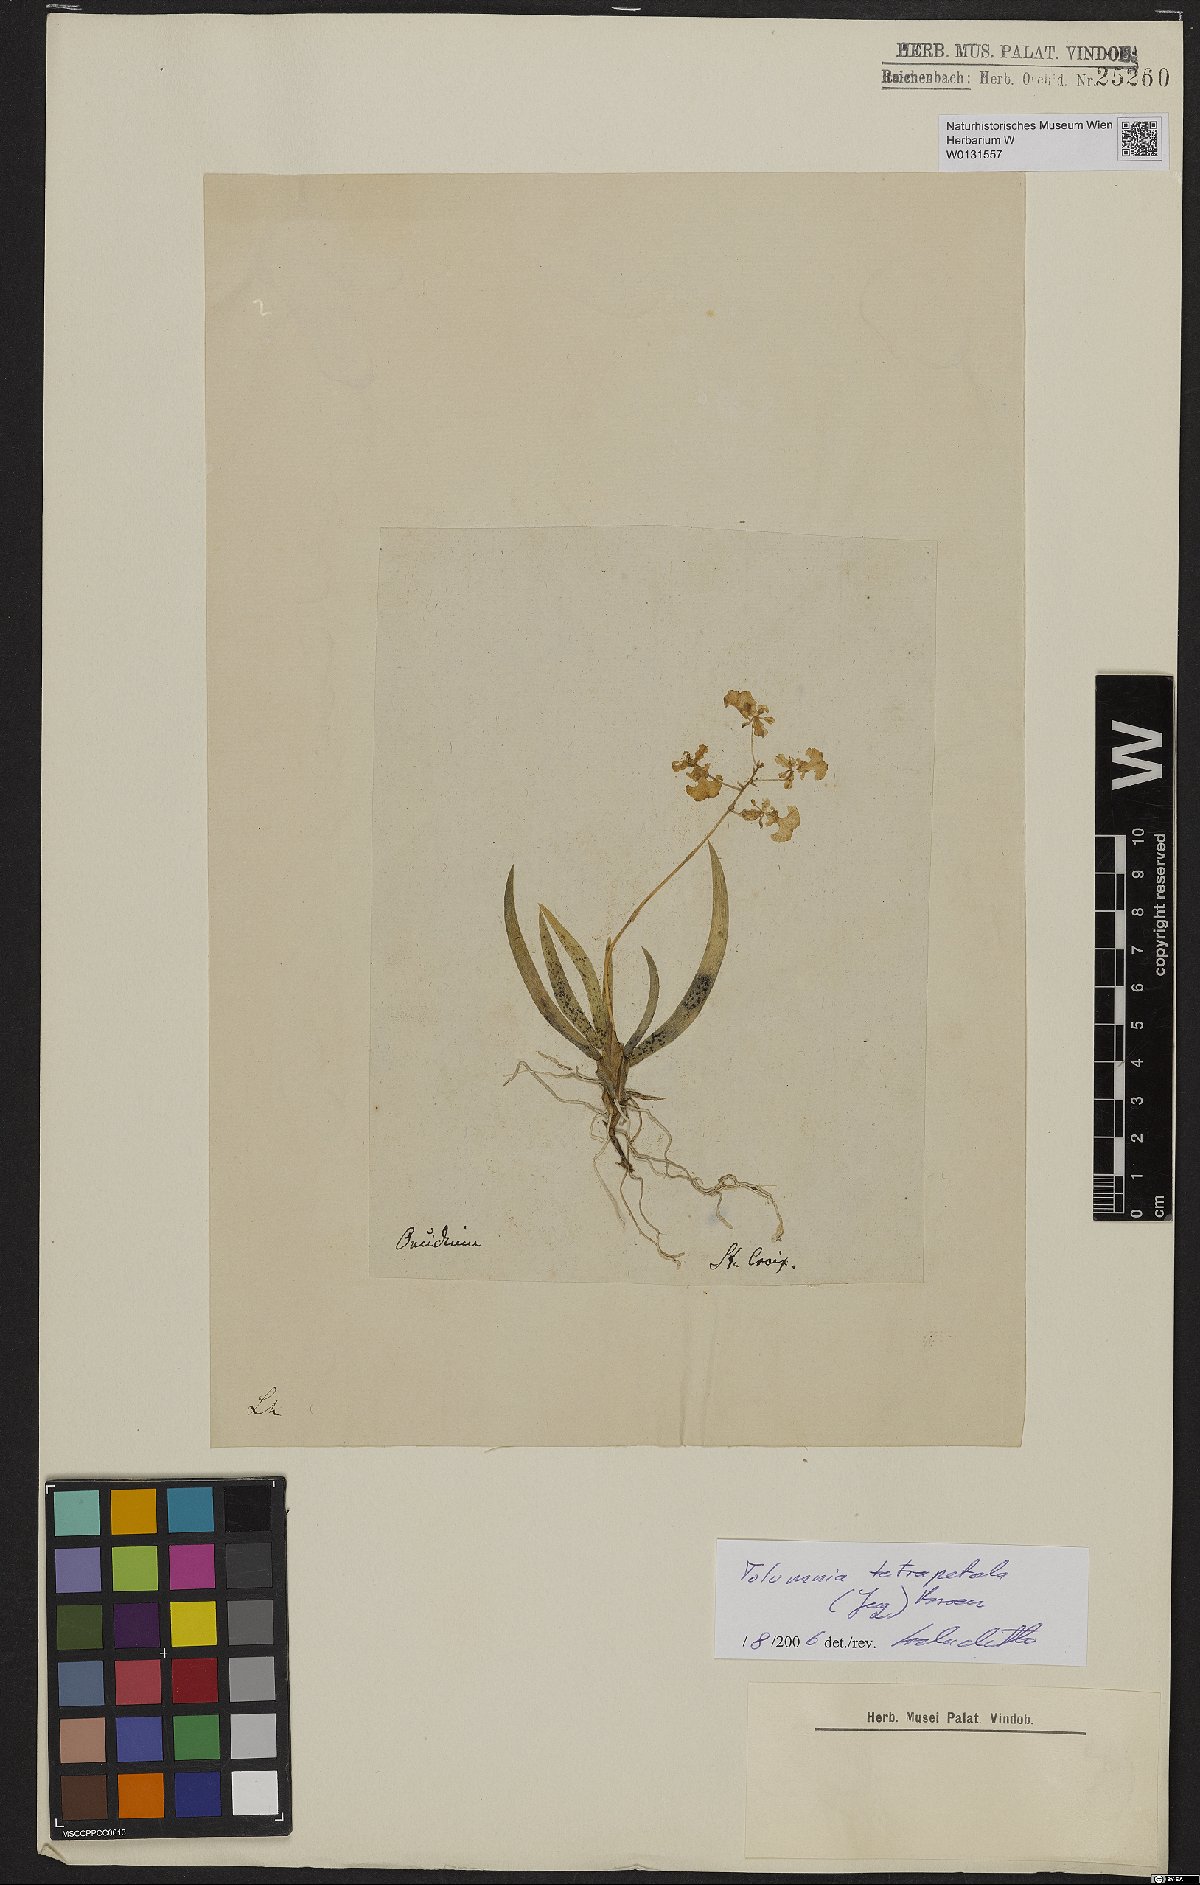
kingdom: Plantae
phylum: Tracheophyta
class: Liliopsida
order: Asparagales
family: Orchidaceae
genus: Tolumnia
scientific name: Tolumnia guttata
